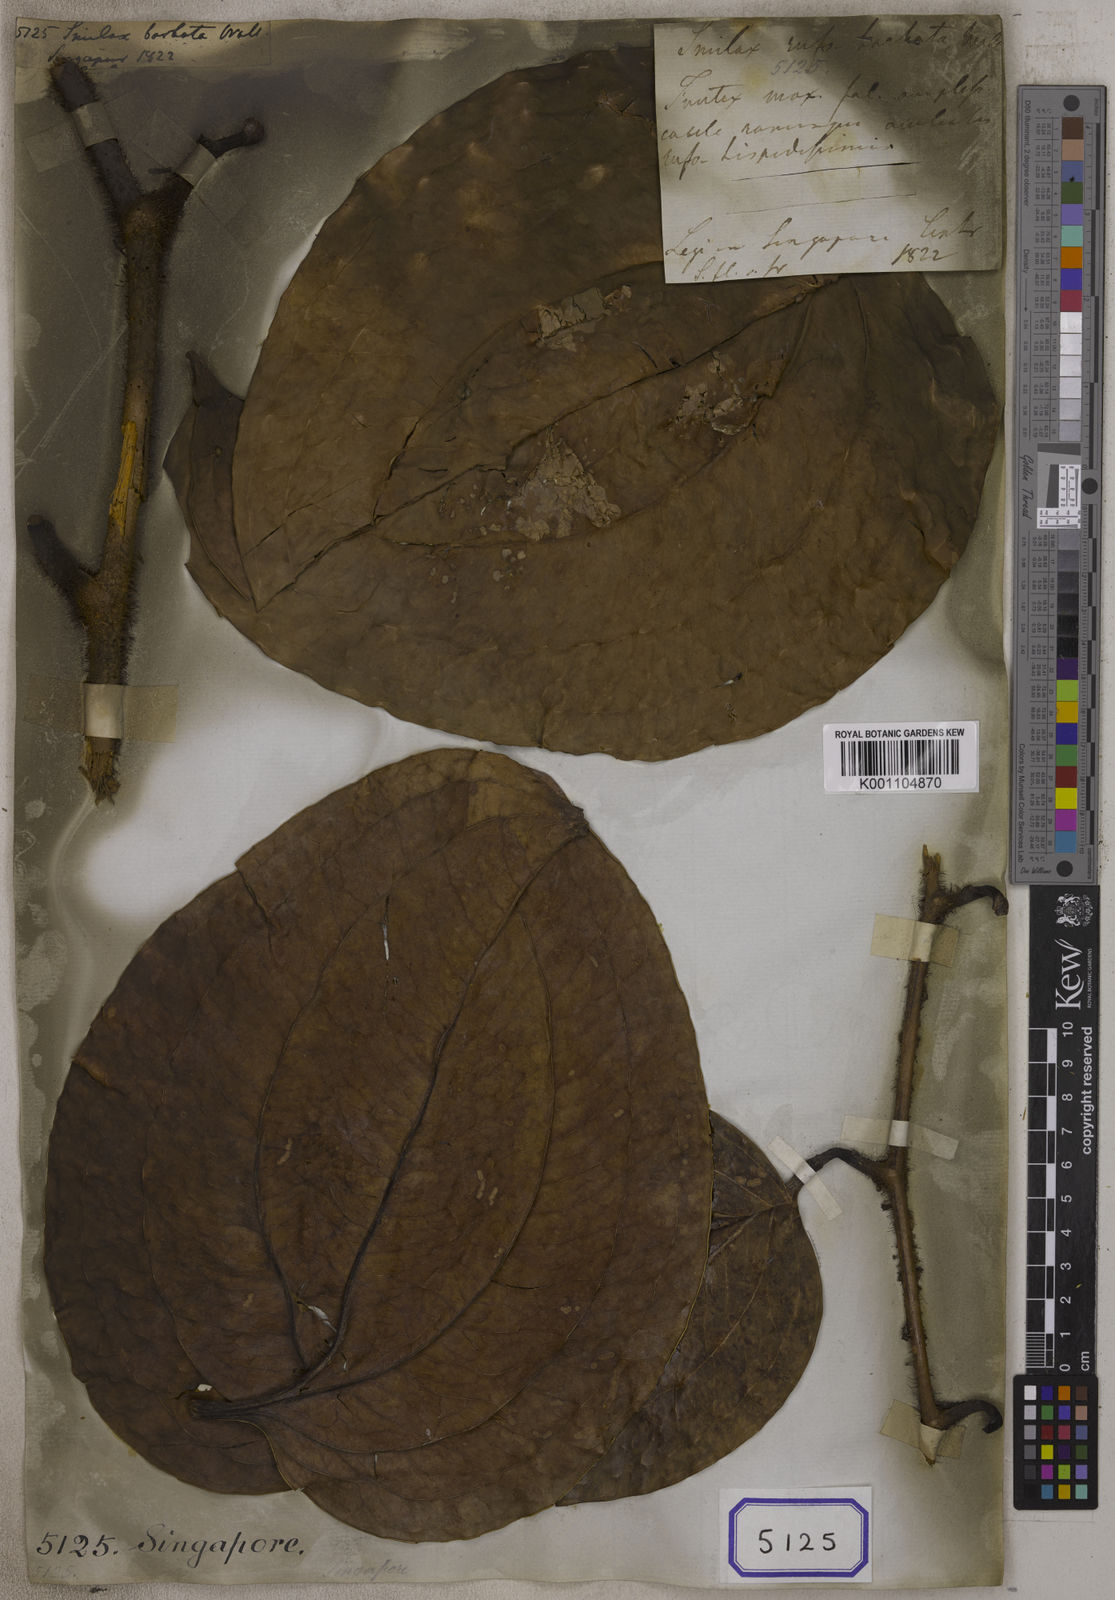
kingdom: Plantae
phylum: Tracheophyta
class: Liliopsida
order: Liliales
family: Smilacaceae
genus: Smilax
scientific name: Smilax
